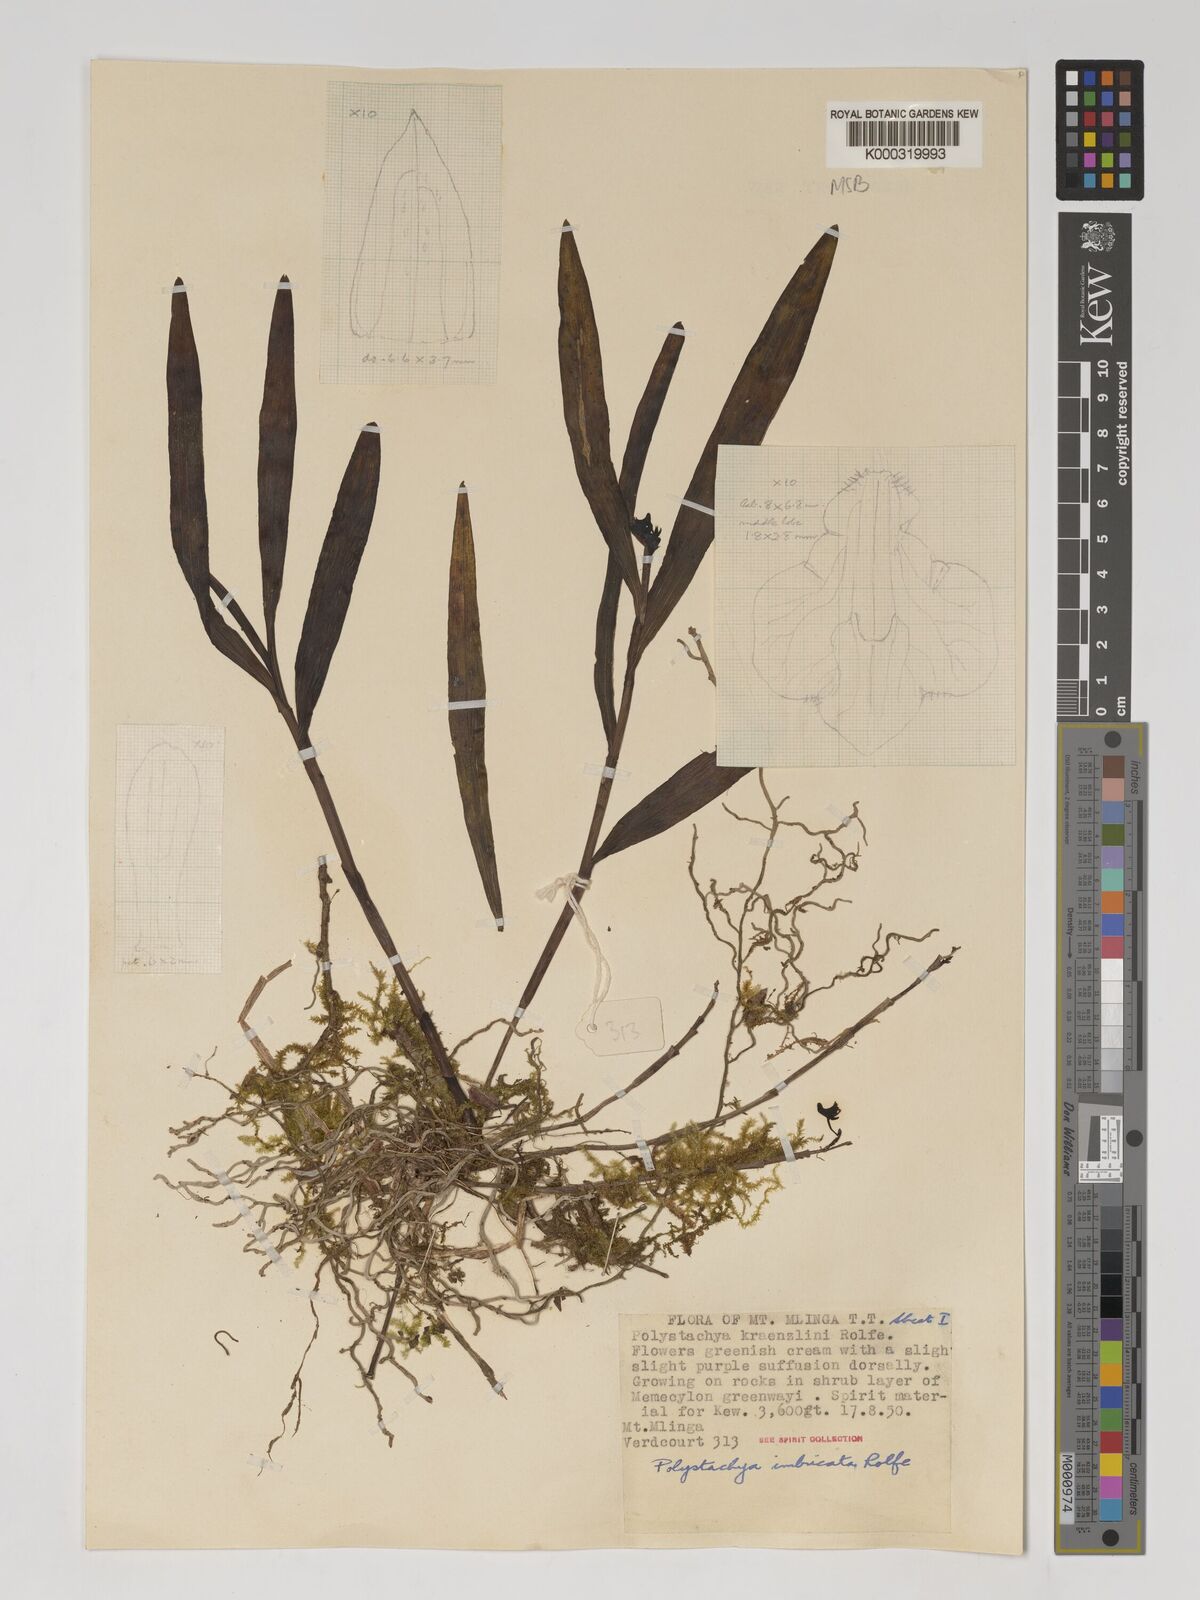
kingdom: Plantae
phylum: Tracheophyta
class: Liliopsida
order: Asparagales
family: Orchidaceae
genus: Polystachya
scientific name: Polystachya albescens
